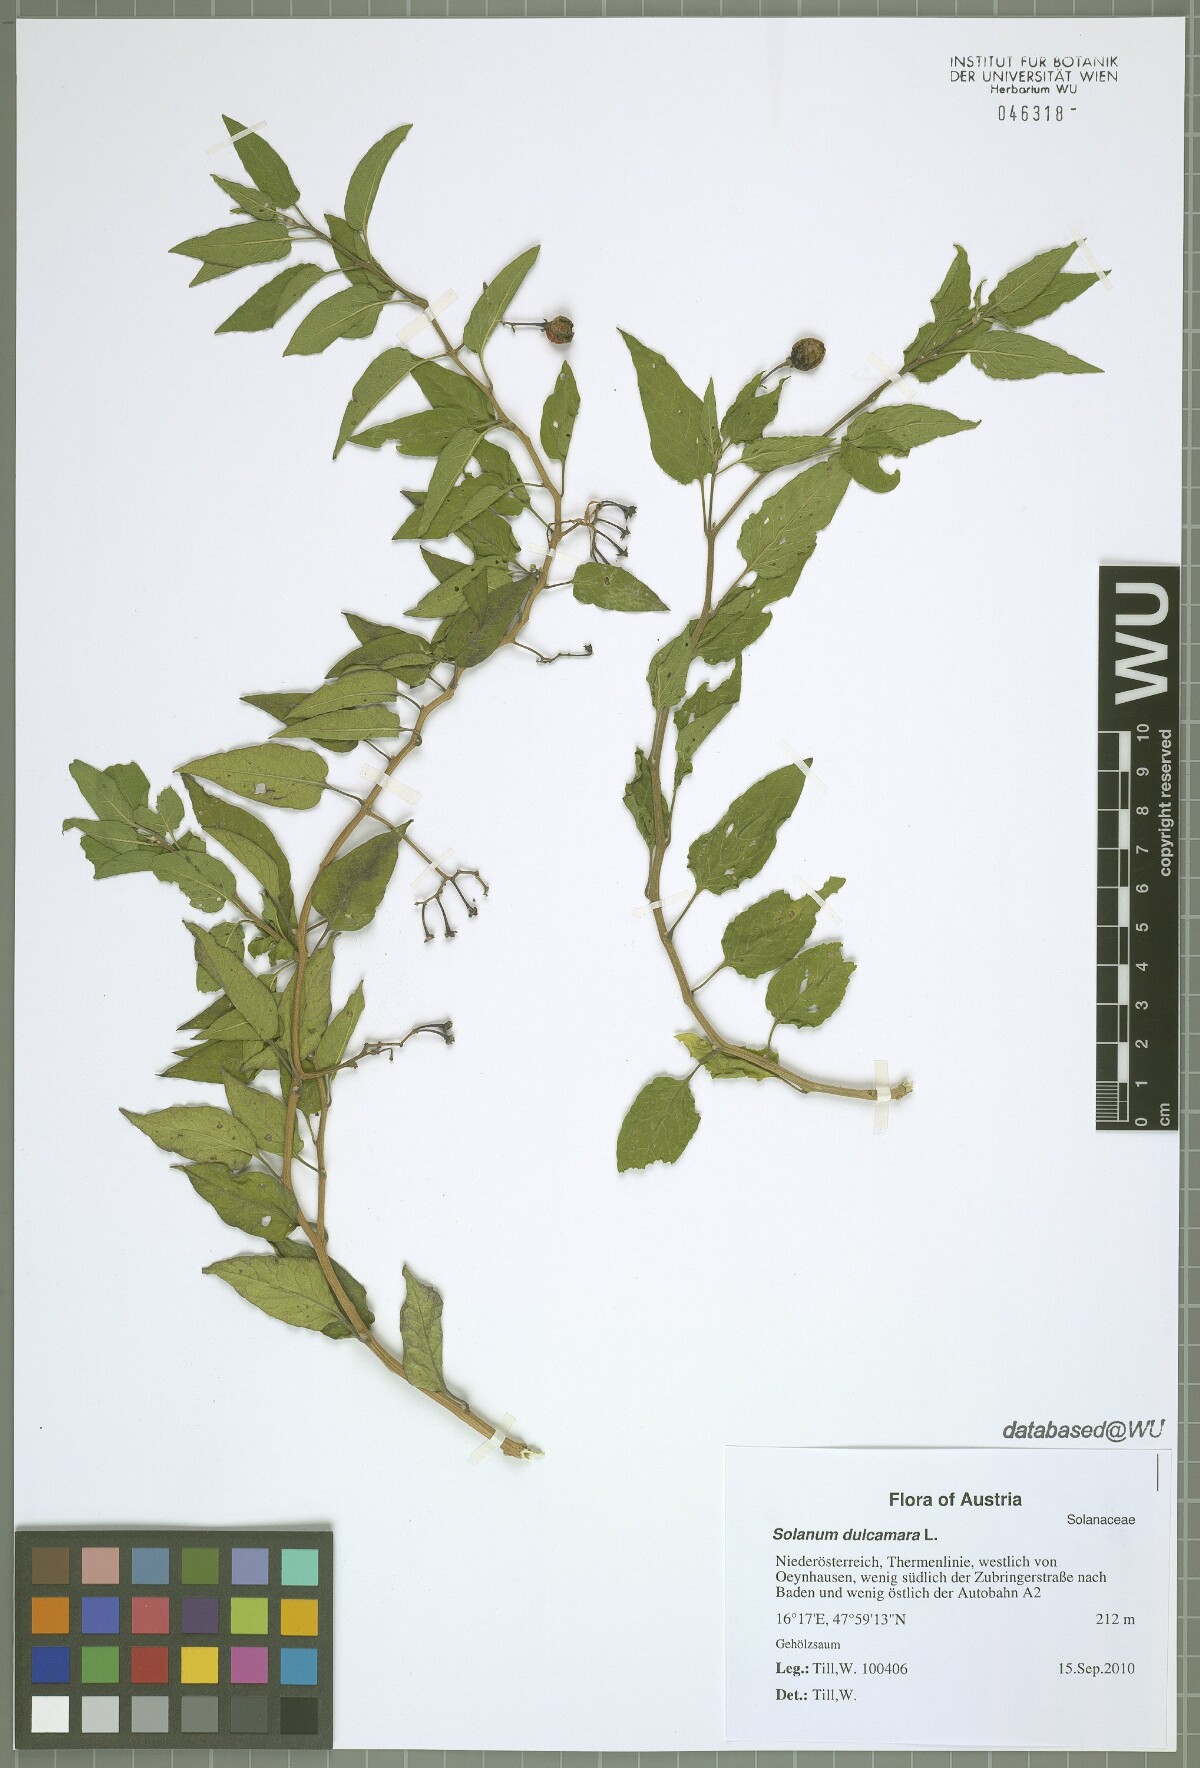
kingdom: Plantae
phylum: Tracheophyta
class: Magnoliopsida
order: Solanales
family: Solanaceae
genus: Solanum
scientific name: Solanum dulcamara
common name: Climbing nightshade
